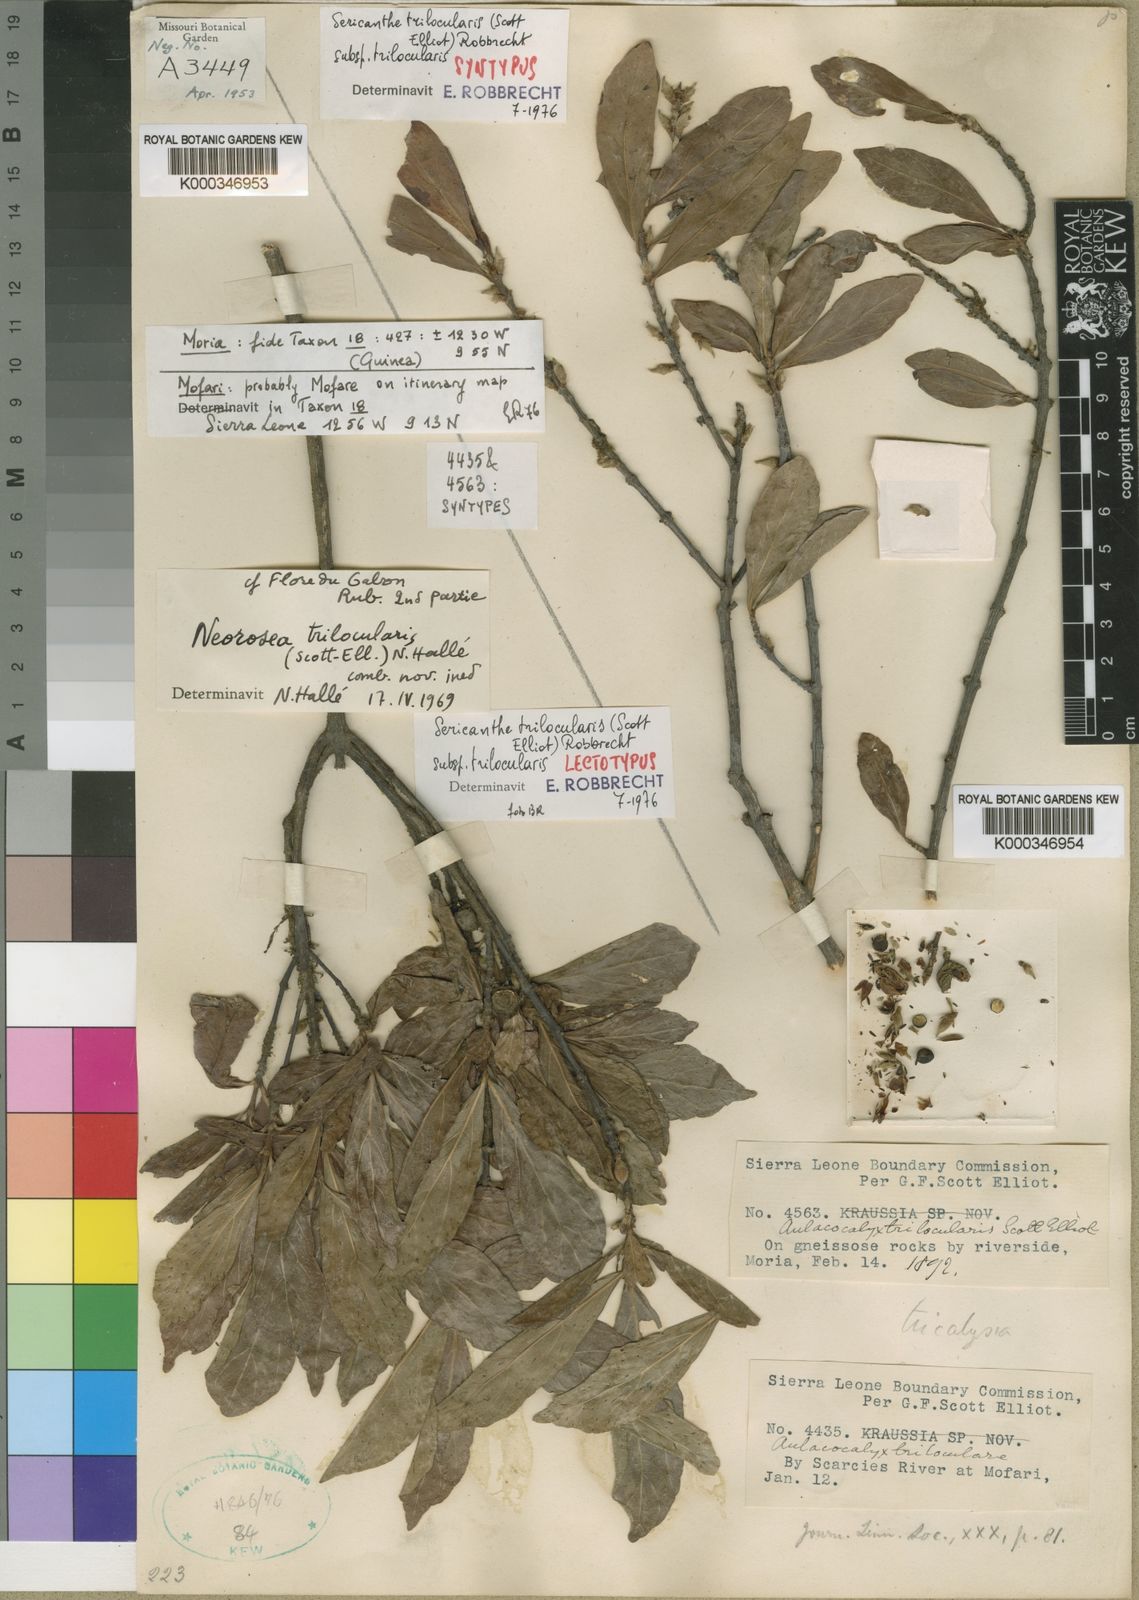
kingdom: Plantae
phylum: Tracheophyta
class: Magnoliopsida
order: Gentianales
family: Rubiaceae
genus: Sericanthe
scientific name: Sericanthe trilocularis
